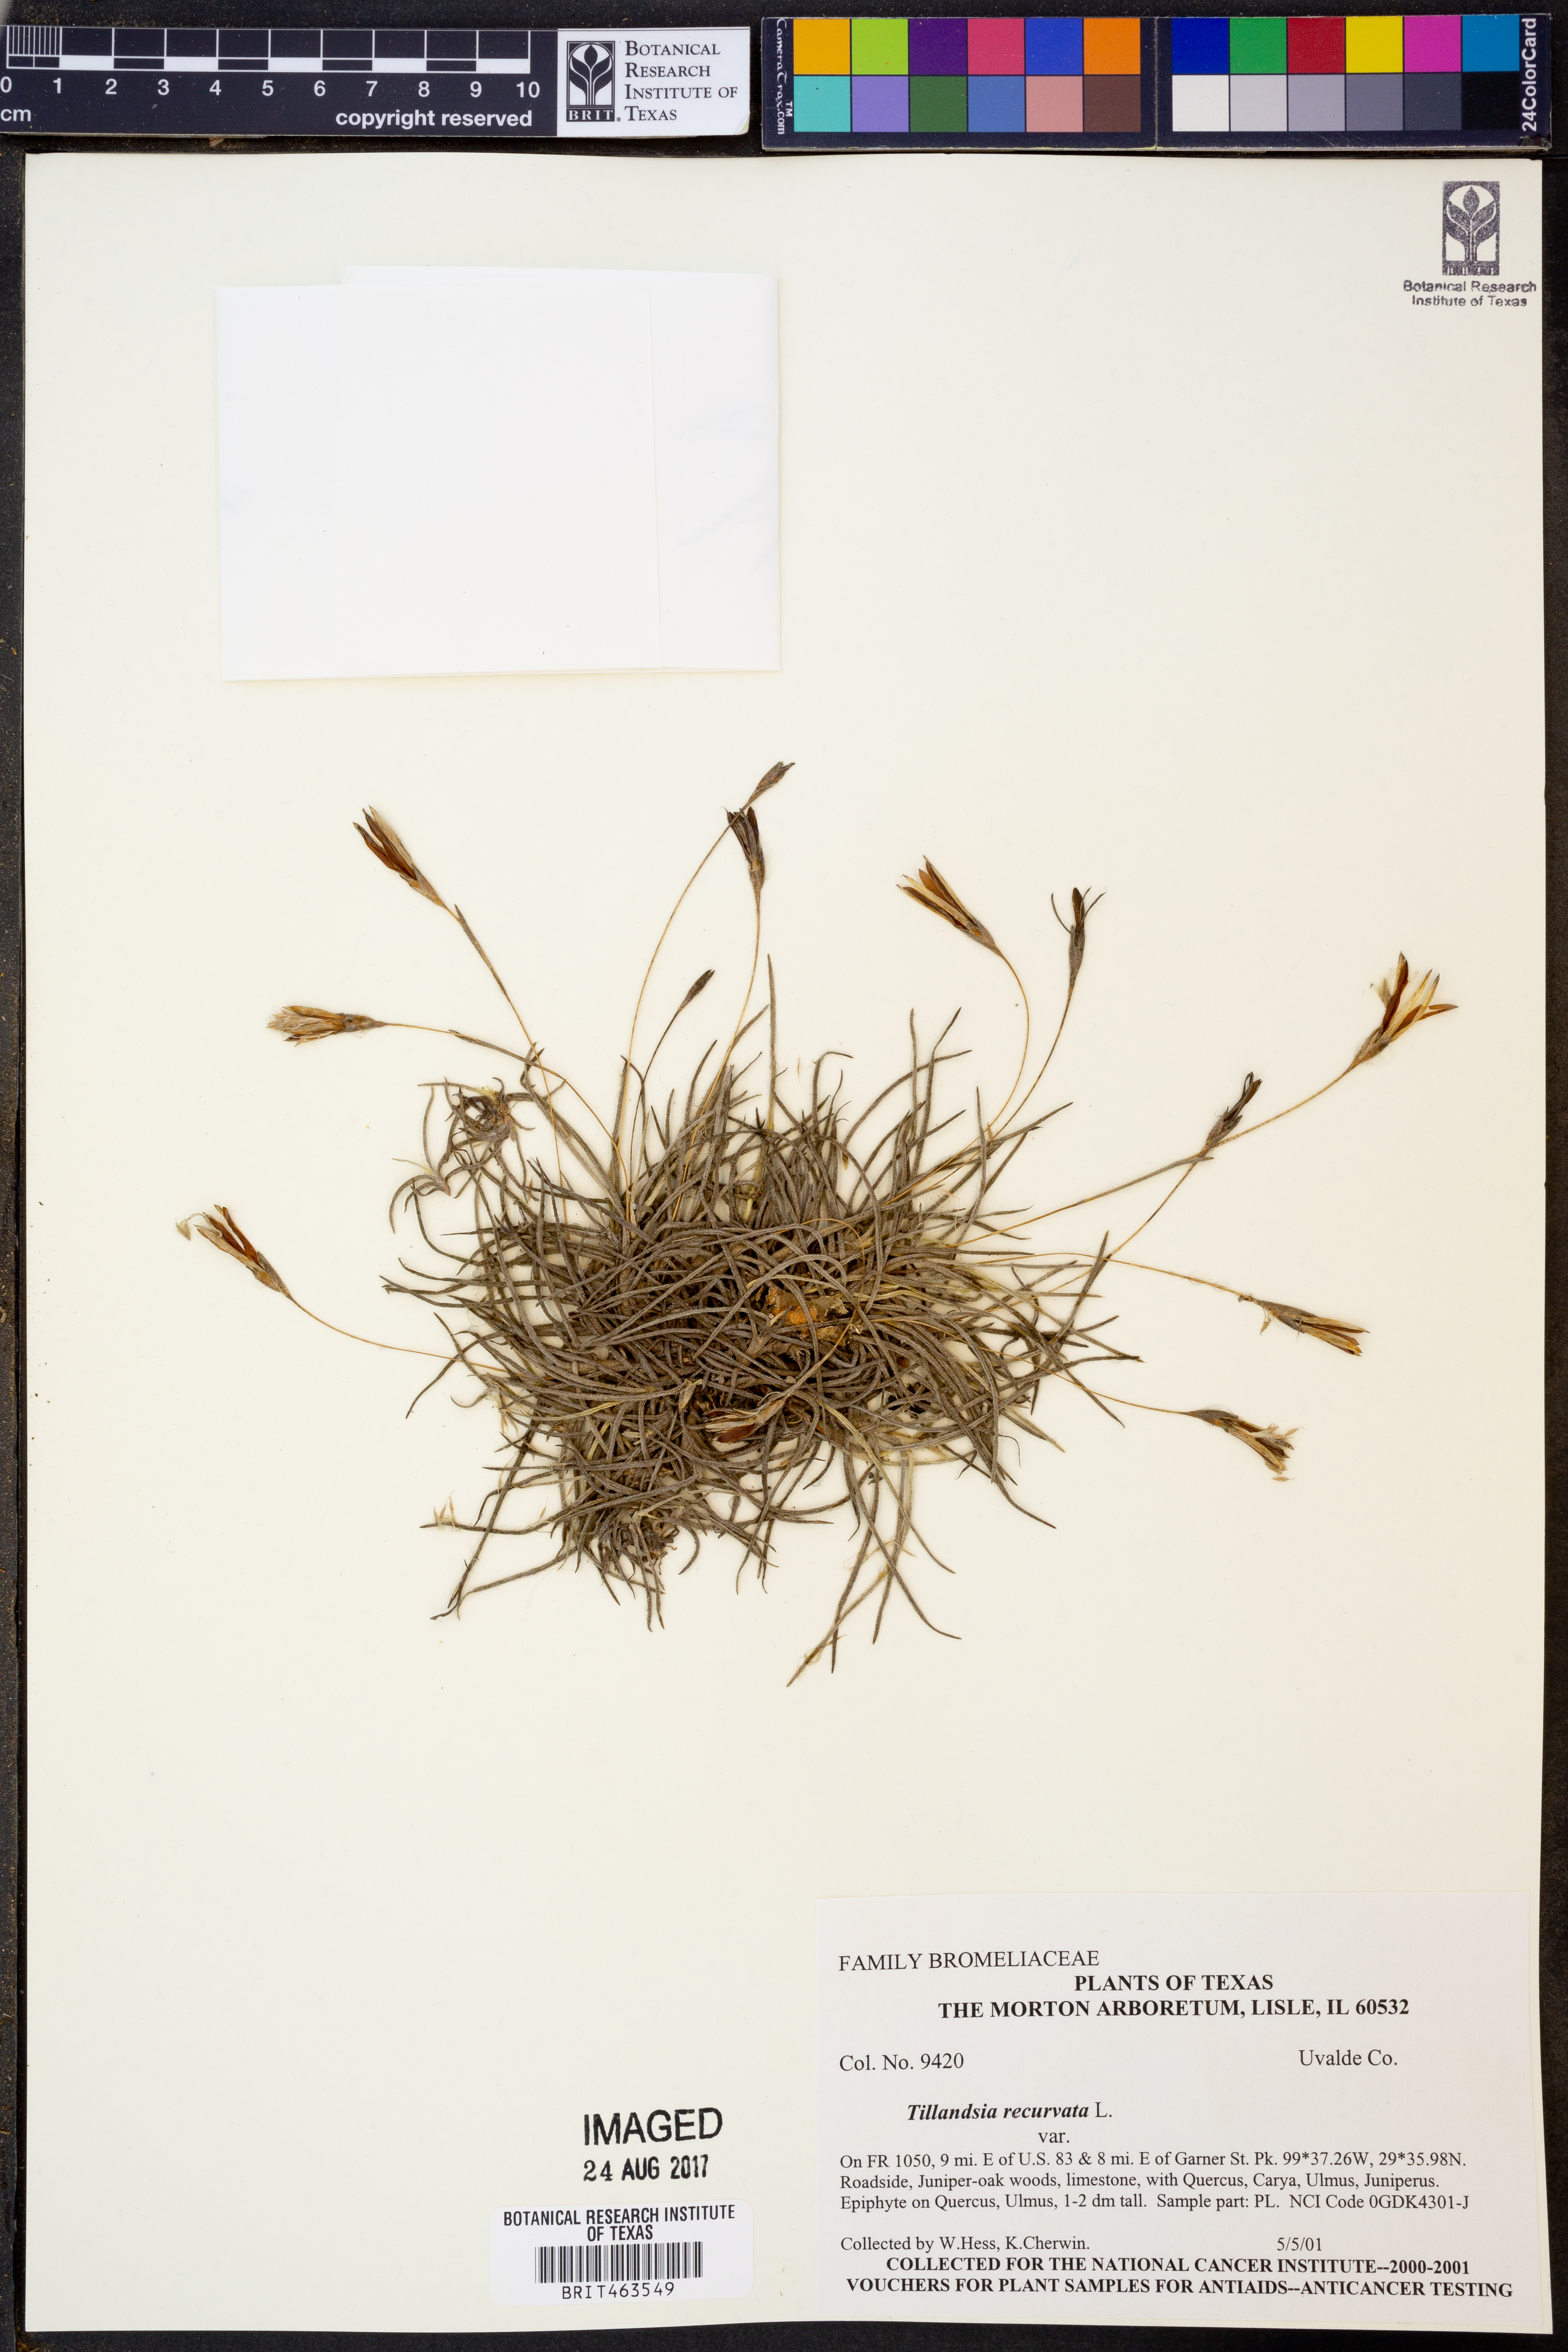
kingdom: Plantae
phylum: Tracheophyta
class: Liliopsida
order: Poales
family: Bromeliaceae
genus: Tillandsia
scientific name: Tillandsia recurvata
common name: Small ballmoss
